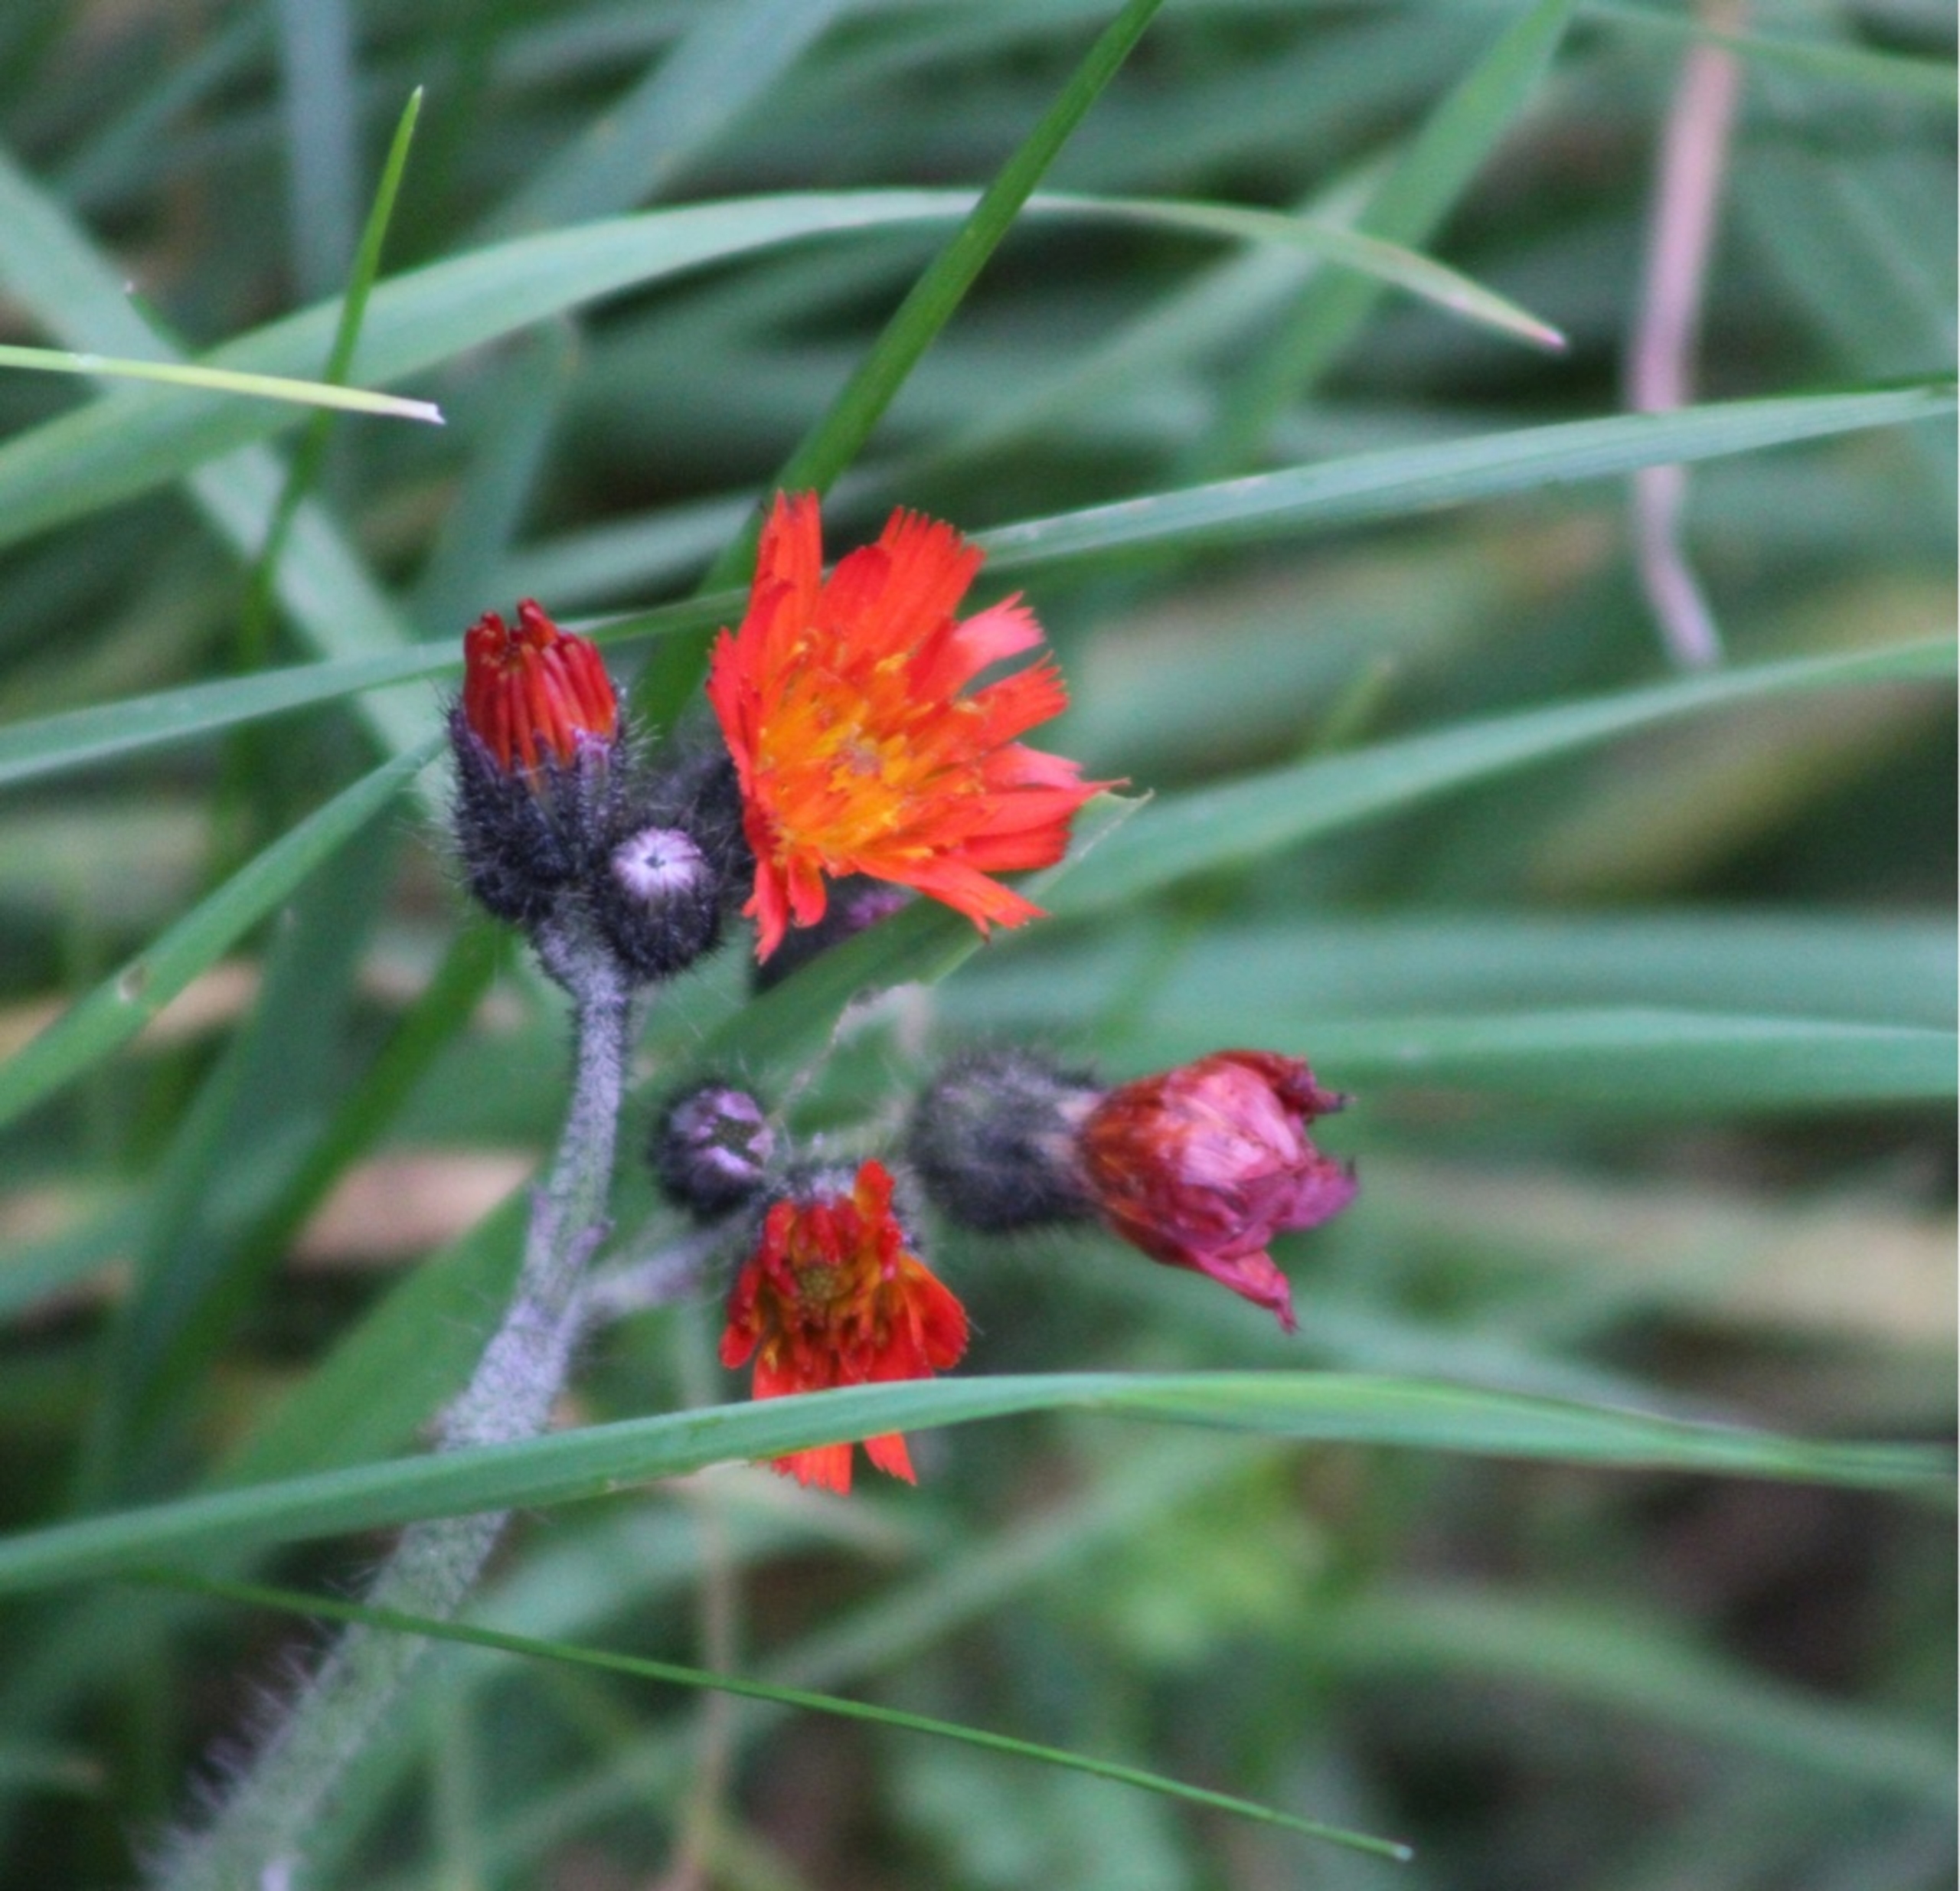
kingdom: Plantae
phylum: Tracheophyta
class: Magnoliopsida
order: Asterales
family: Asteraceae
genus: Pilosella
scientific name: Pilosella aurantiaca
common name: Pomerans-høgeurt
